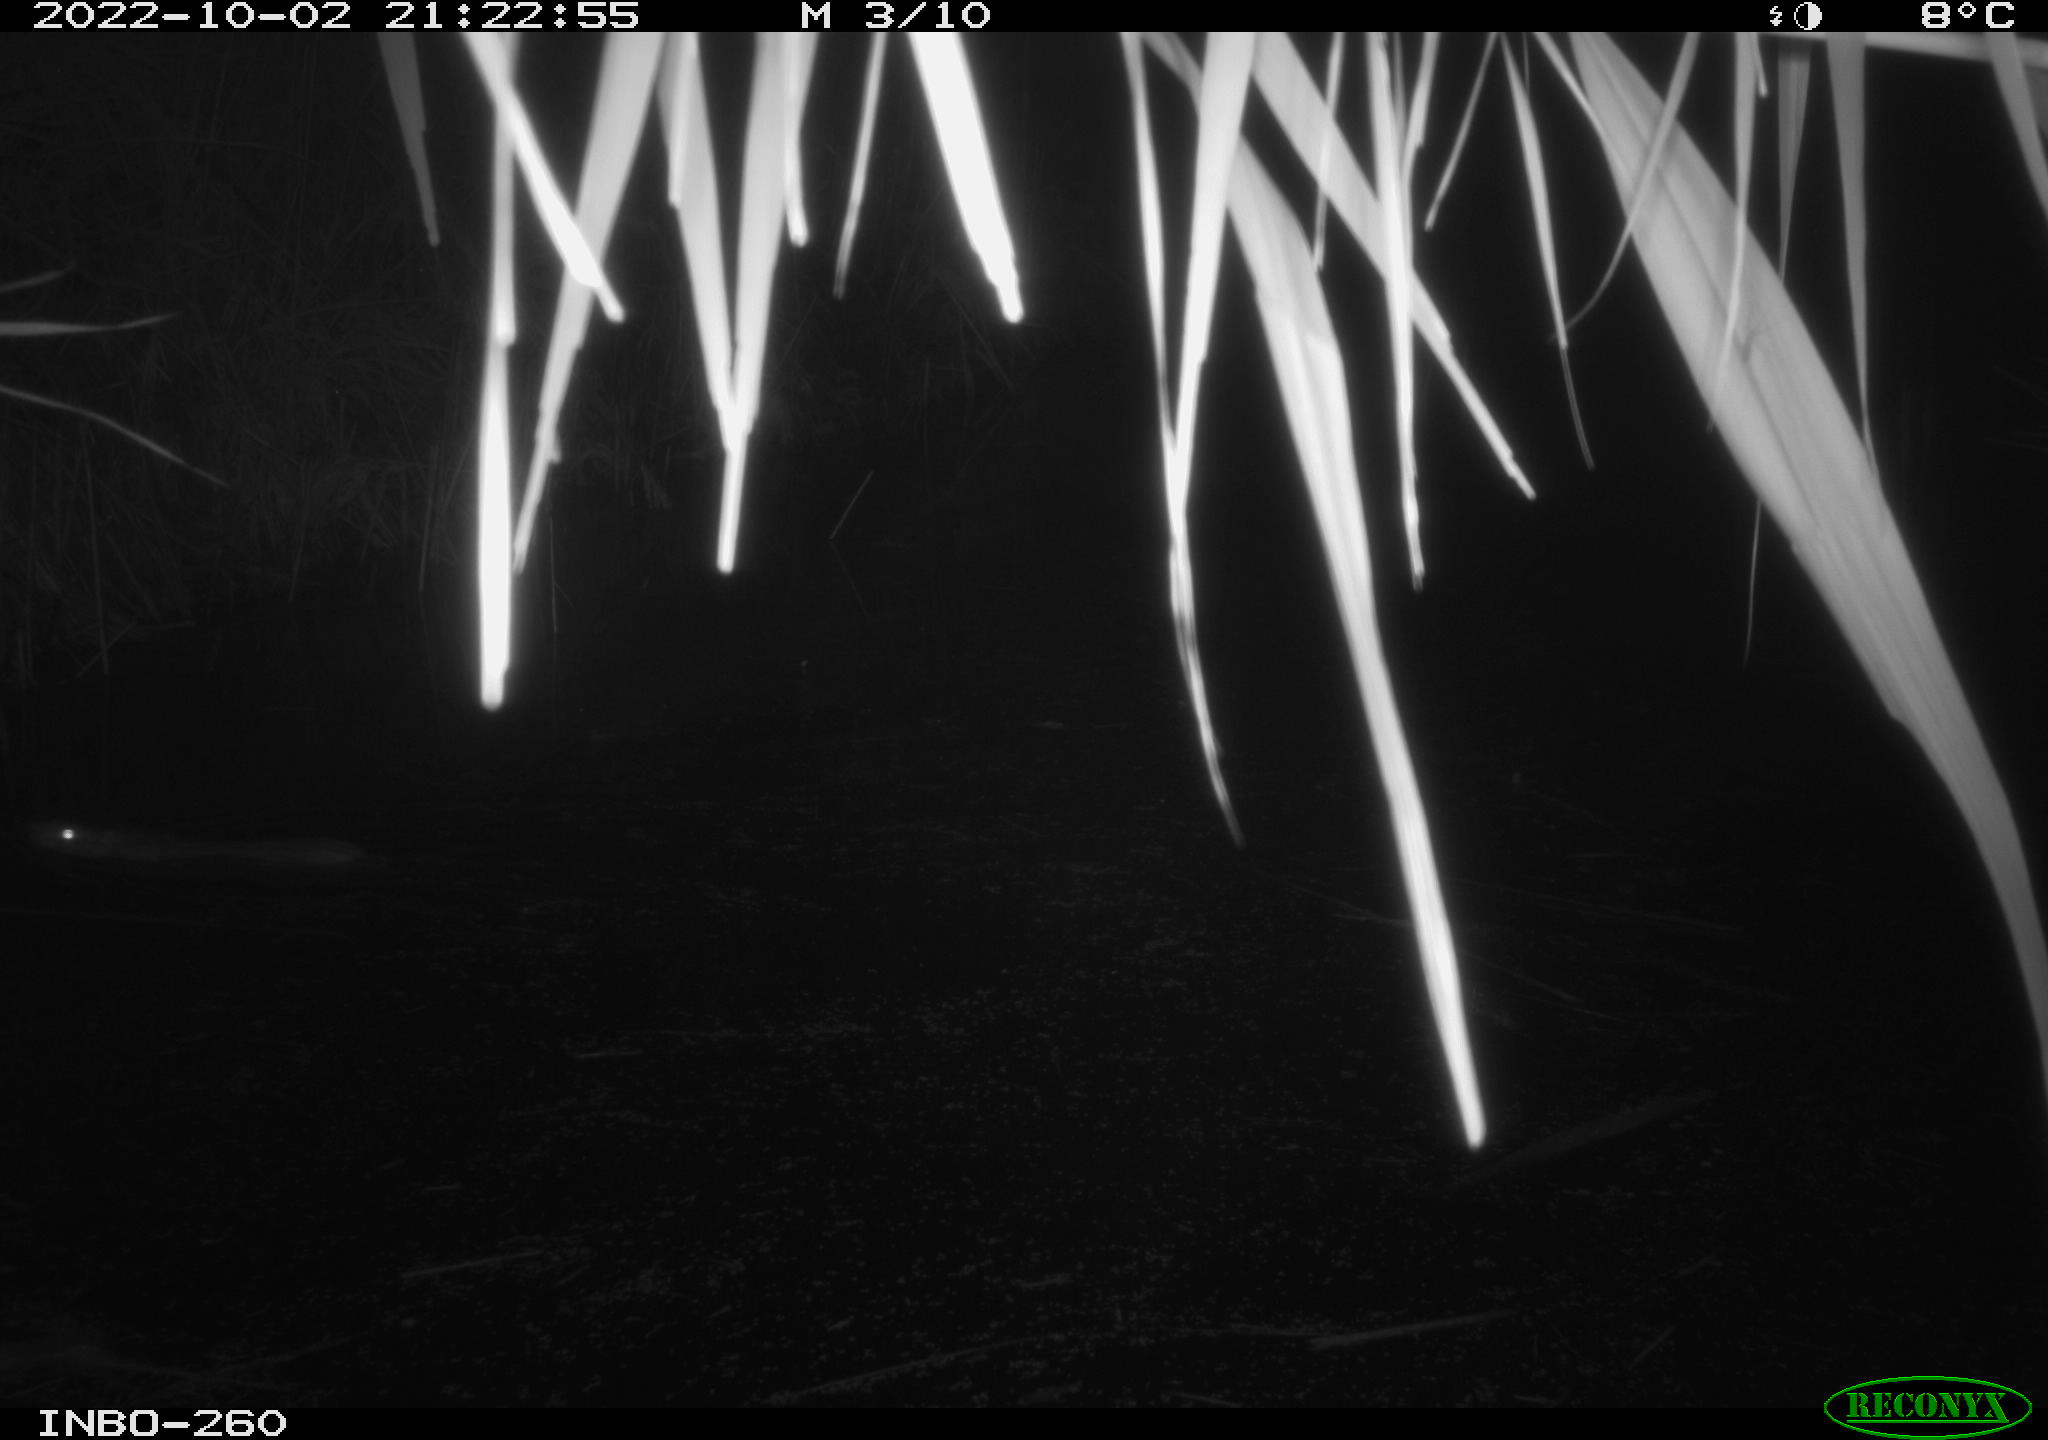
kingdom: Animalia
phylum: Chordata
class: Mammalia
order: Rodentia
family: Muridae
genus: Rattus
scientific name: Rattus norvegicus
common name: Brown rat
